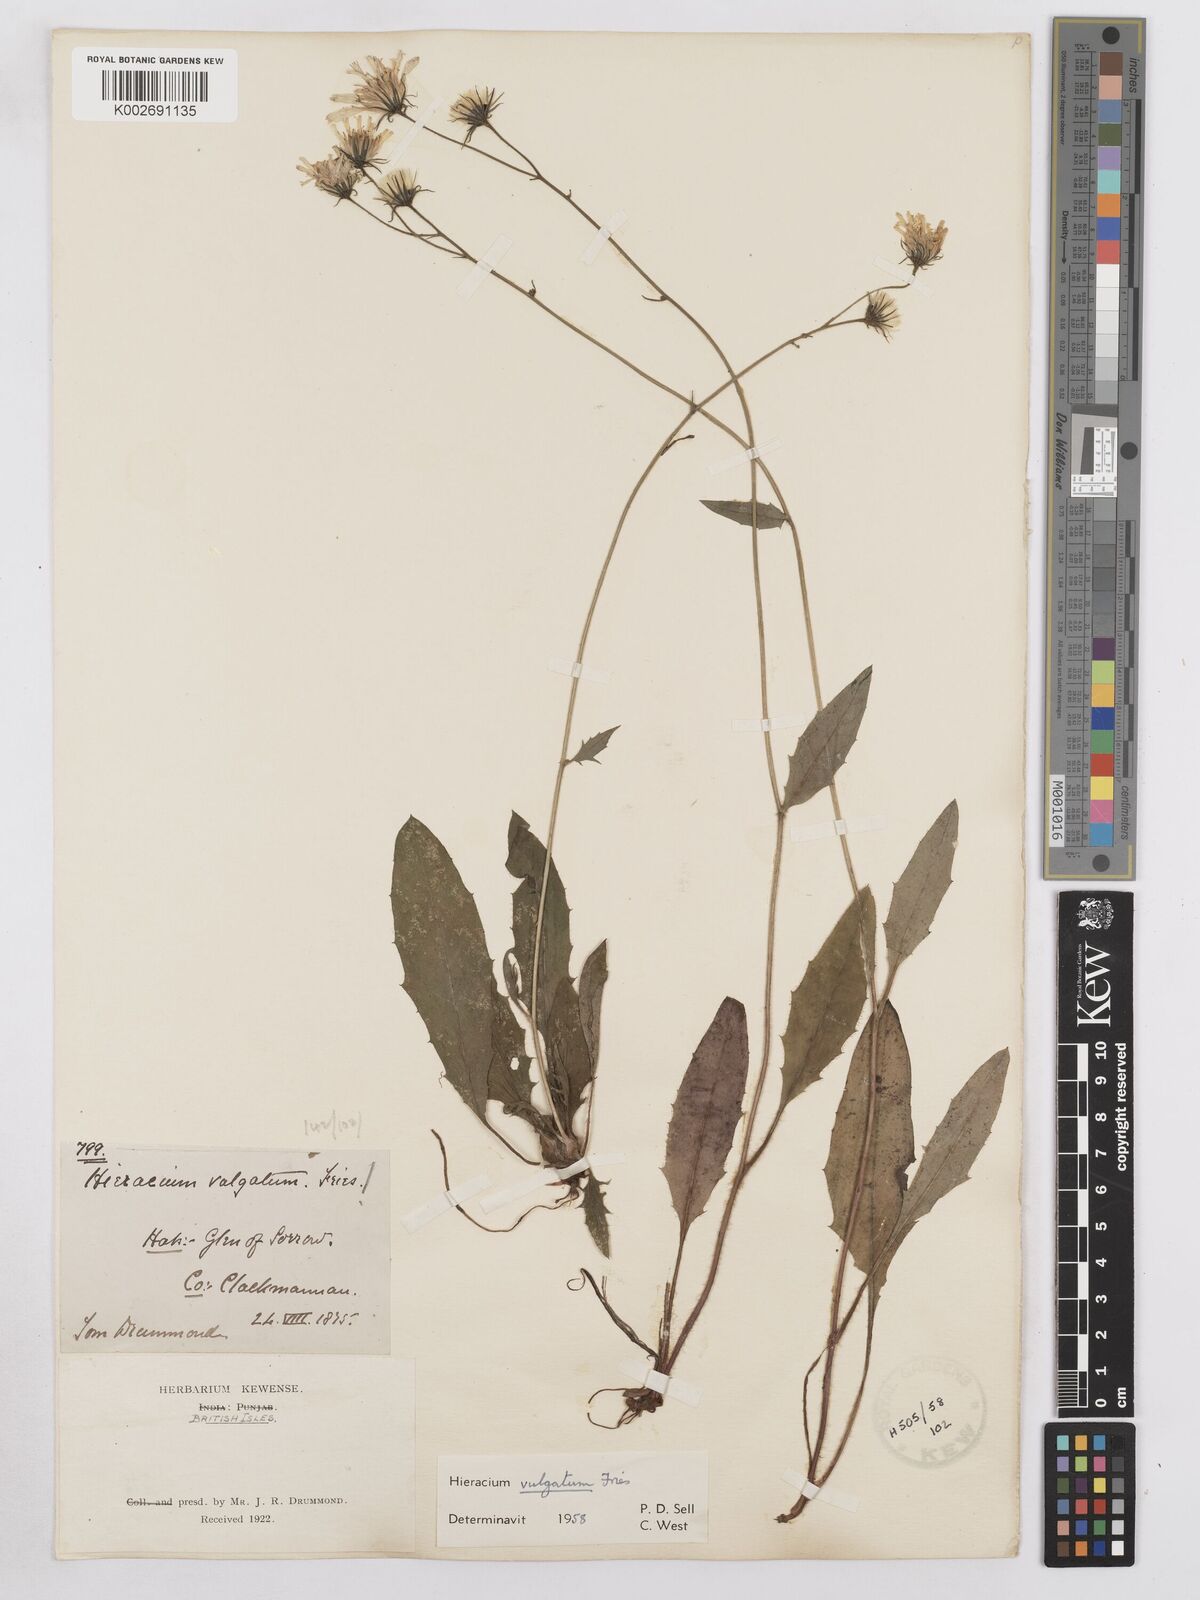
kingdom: Plantae
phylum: Tracheophyta
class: Magnoliopsida
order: Asterales
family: Asteraceae
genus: Hieracium
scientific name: Hieracium lachenalii
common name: Common hawkweed
